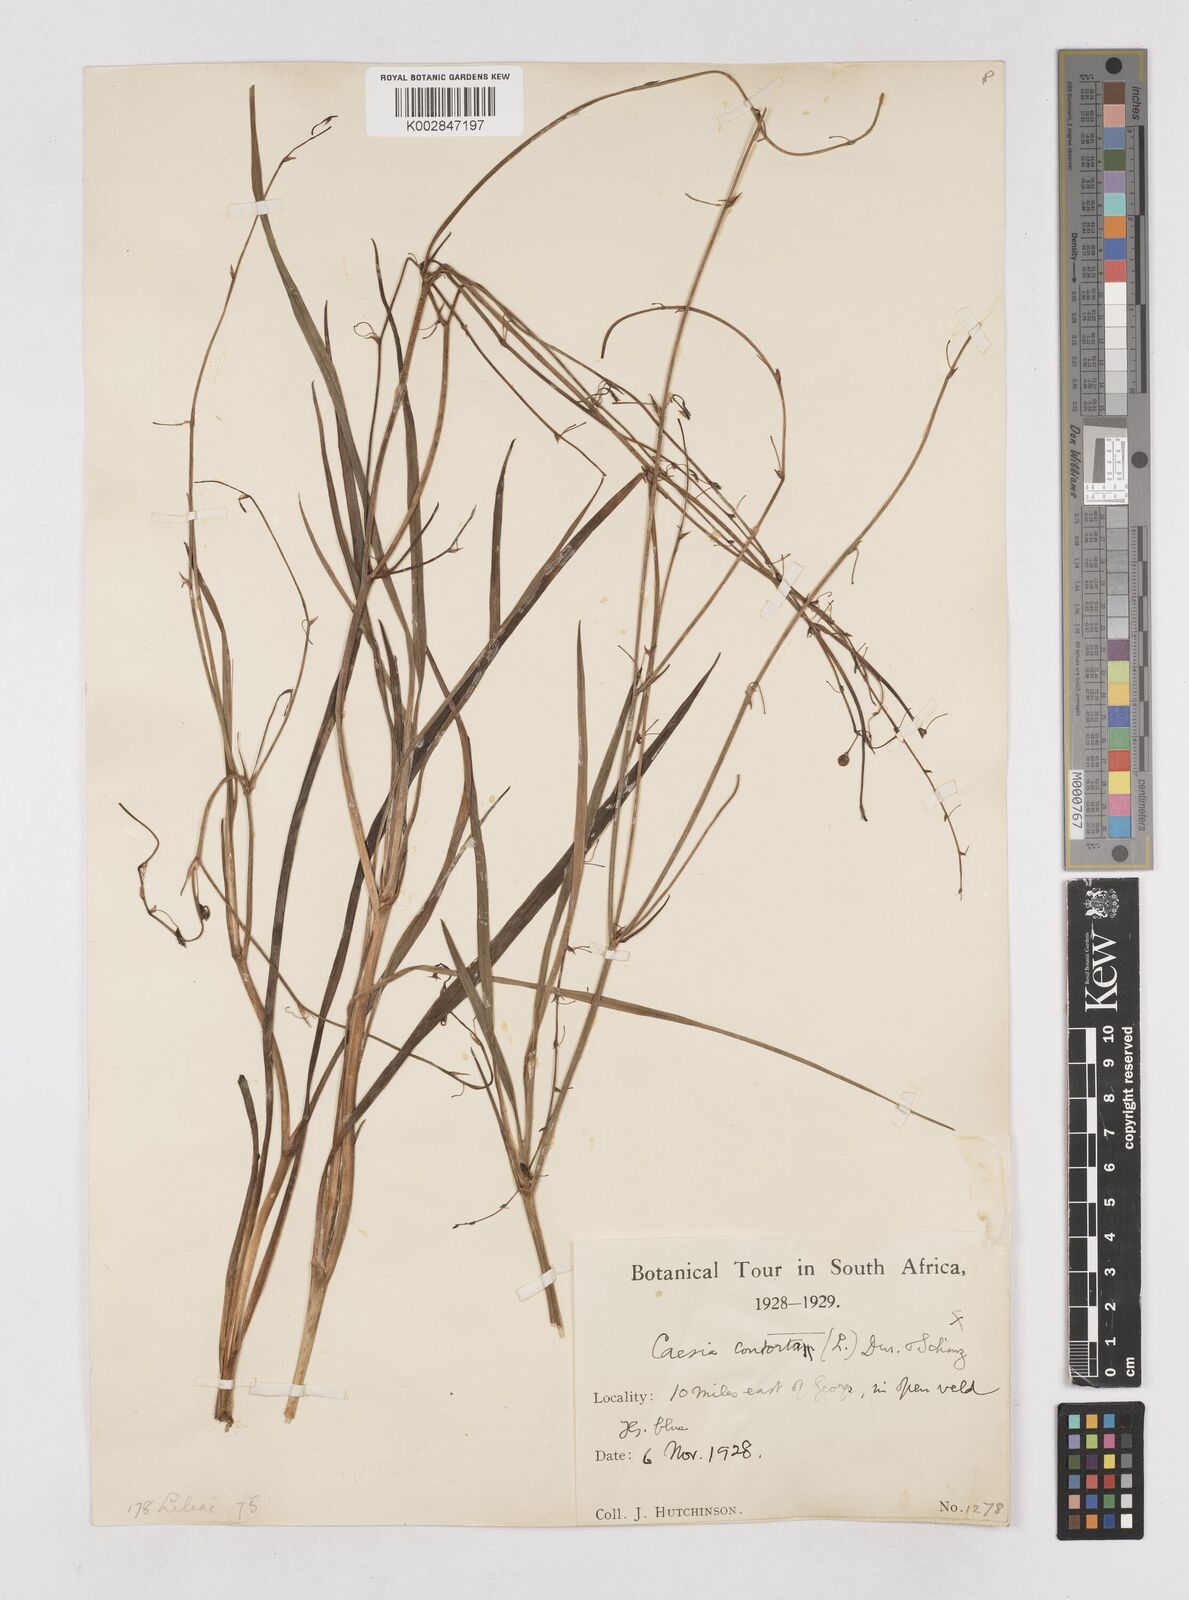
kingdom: Plantae
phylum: Tracheophyta
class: Liliopsida
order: Asparagales
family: Asphodelaceae
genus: Caesia
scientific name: Caesia contorta
